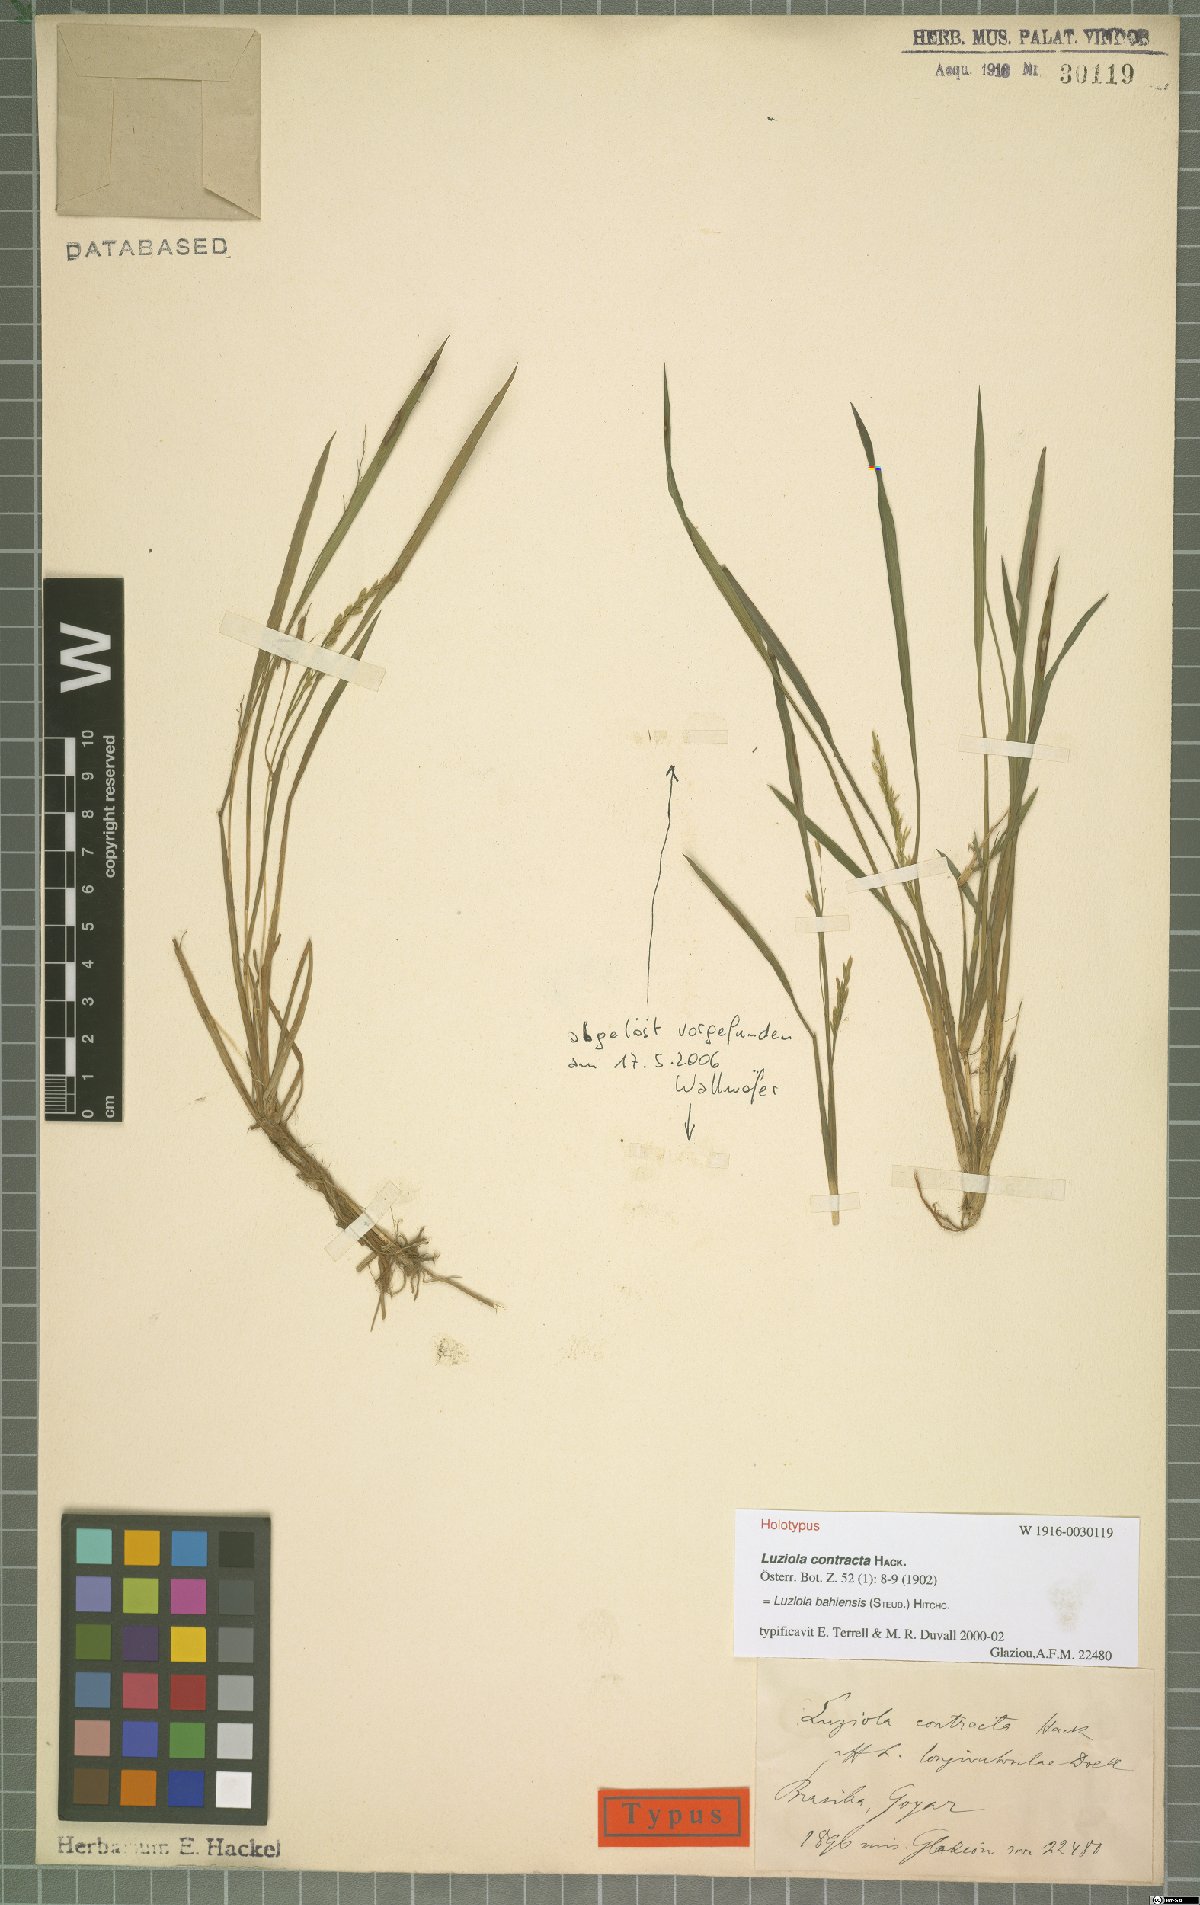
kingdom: Plantae
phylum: Tracheophyta
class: Liliopsida
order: Poales
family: Poaceae
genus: Luziola
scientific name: Luziola bahiensis
